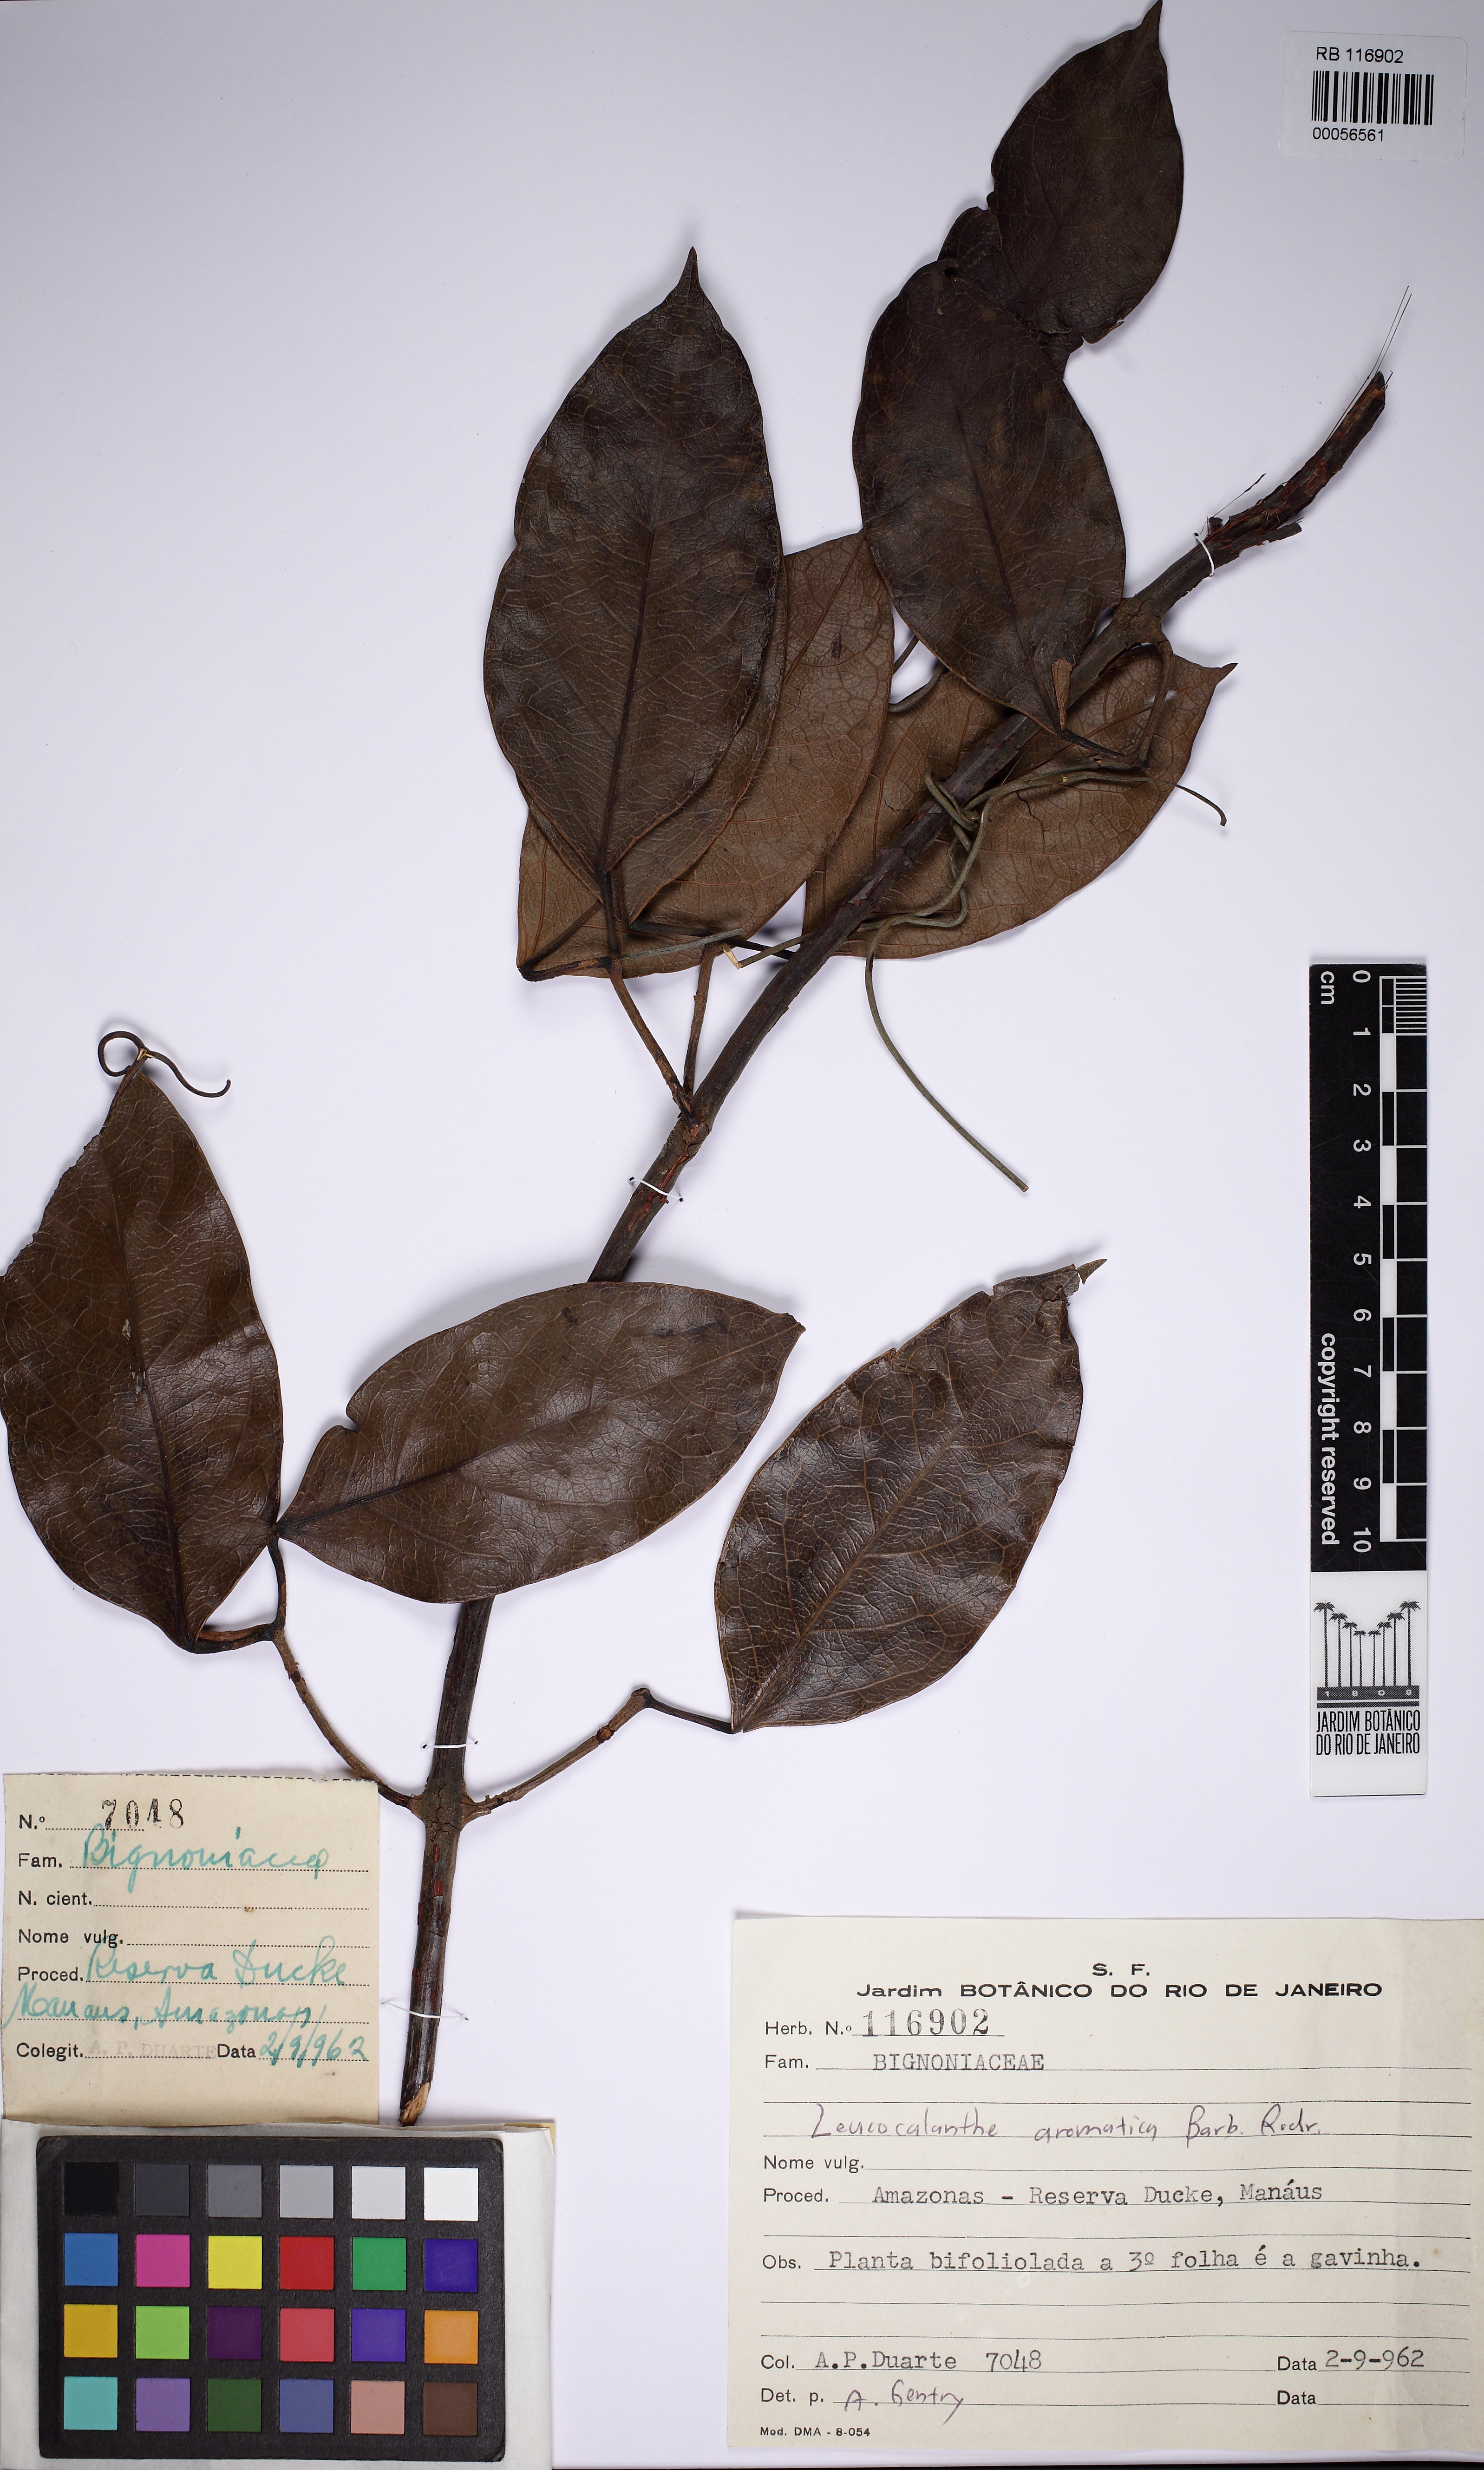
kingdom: Plantae
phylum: Tracheophyta
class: Magnoliopsida
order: Lamiales
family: Bignoniaceae
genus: Pachyptera
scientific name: Pachyptera aromatica
